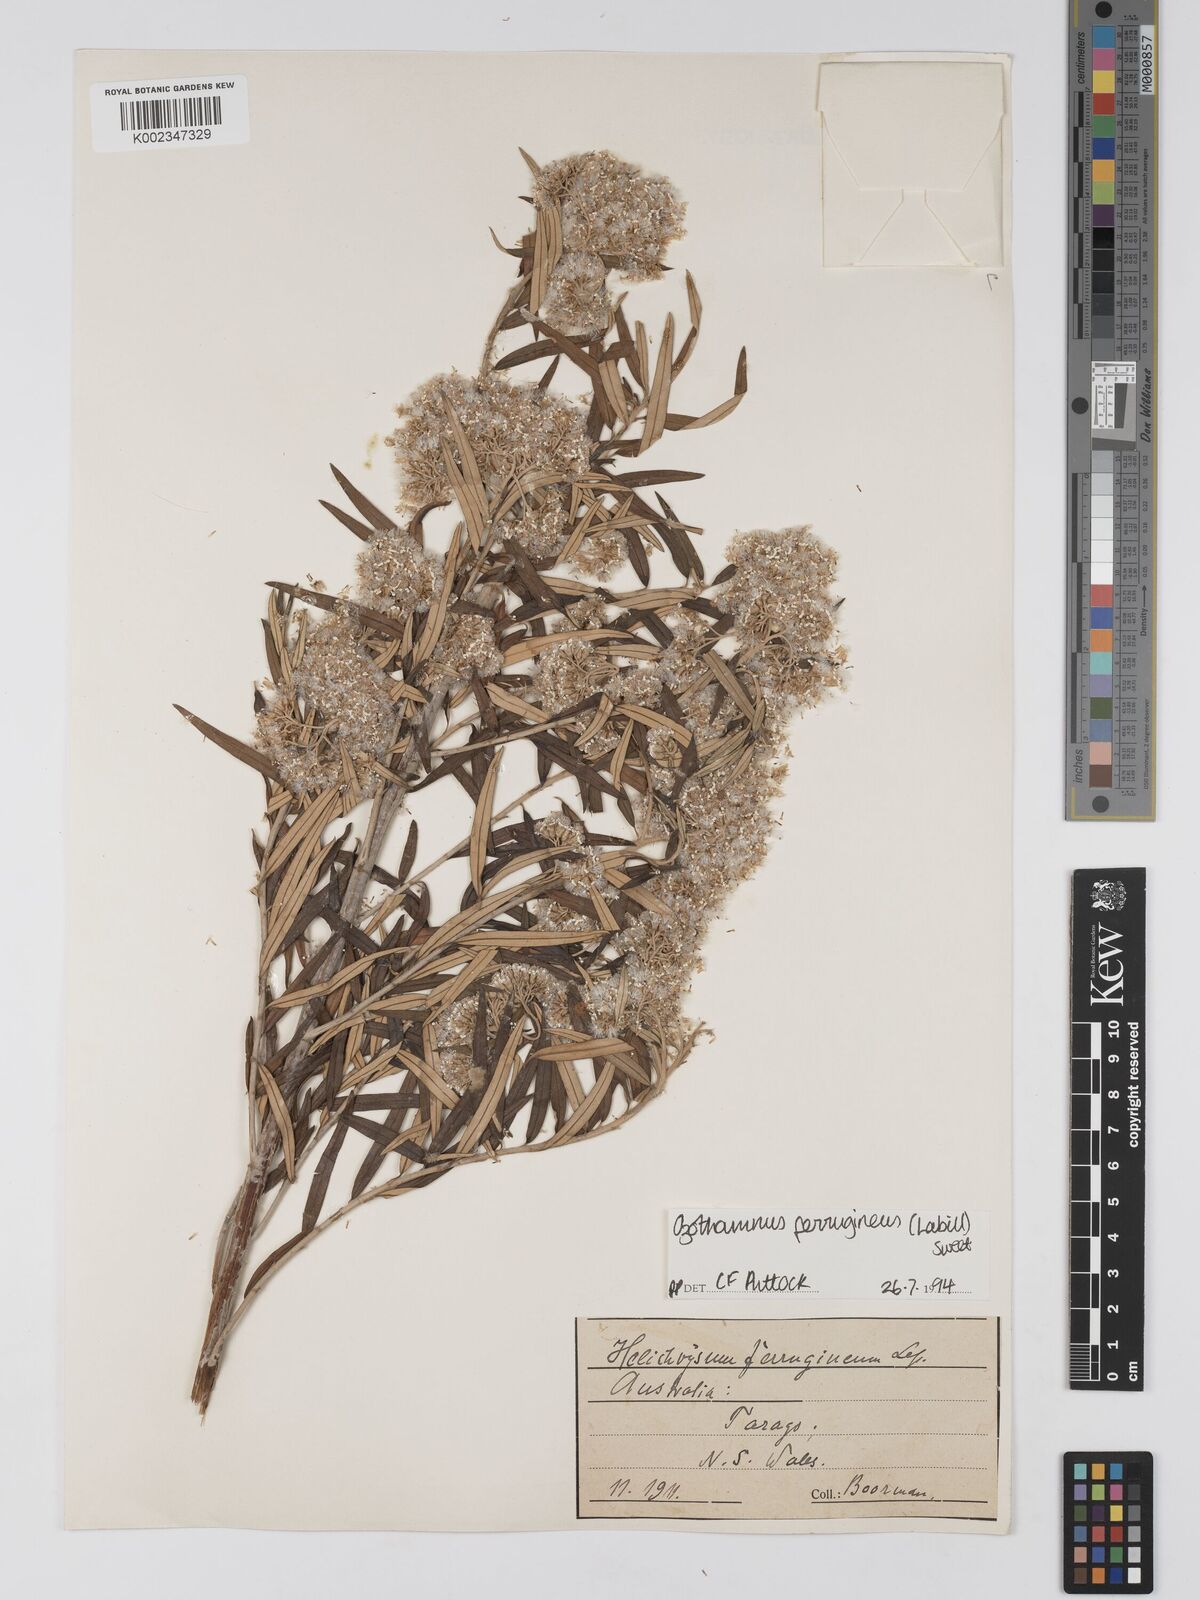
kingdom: Plantae
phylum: Tracheophyta
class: Magnoliopsida
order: Asterales
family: Asteraceae
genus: Ozothamnus
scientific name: Ozothamnus argophyllus
